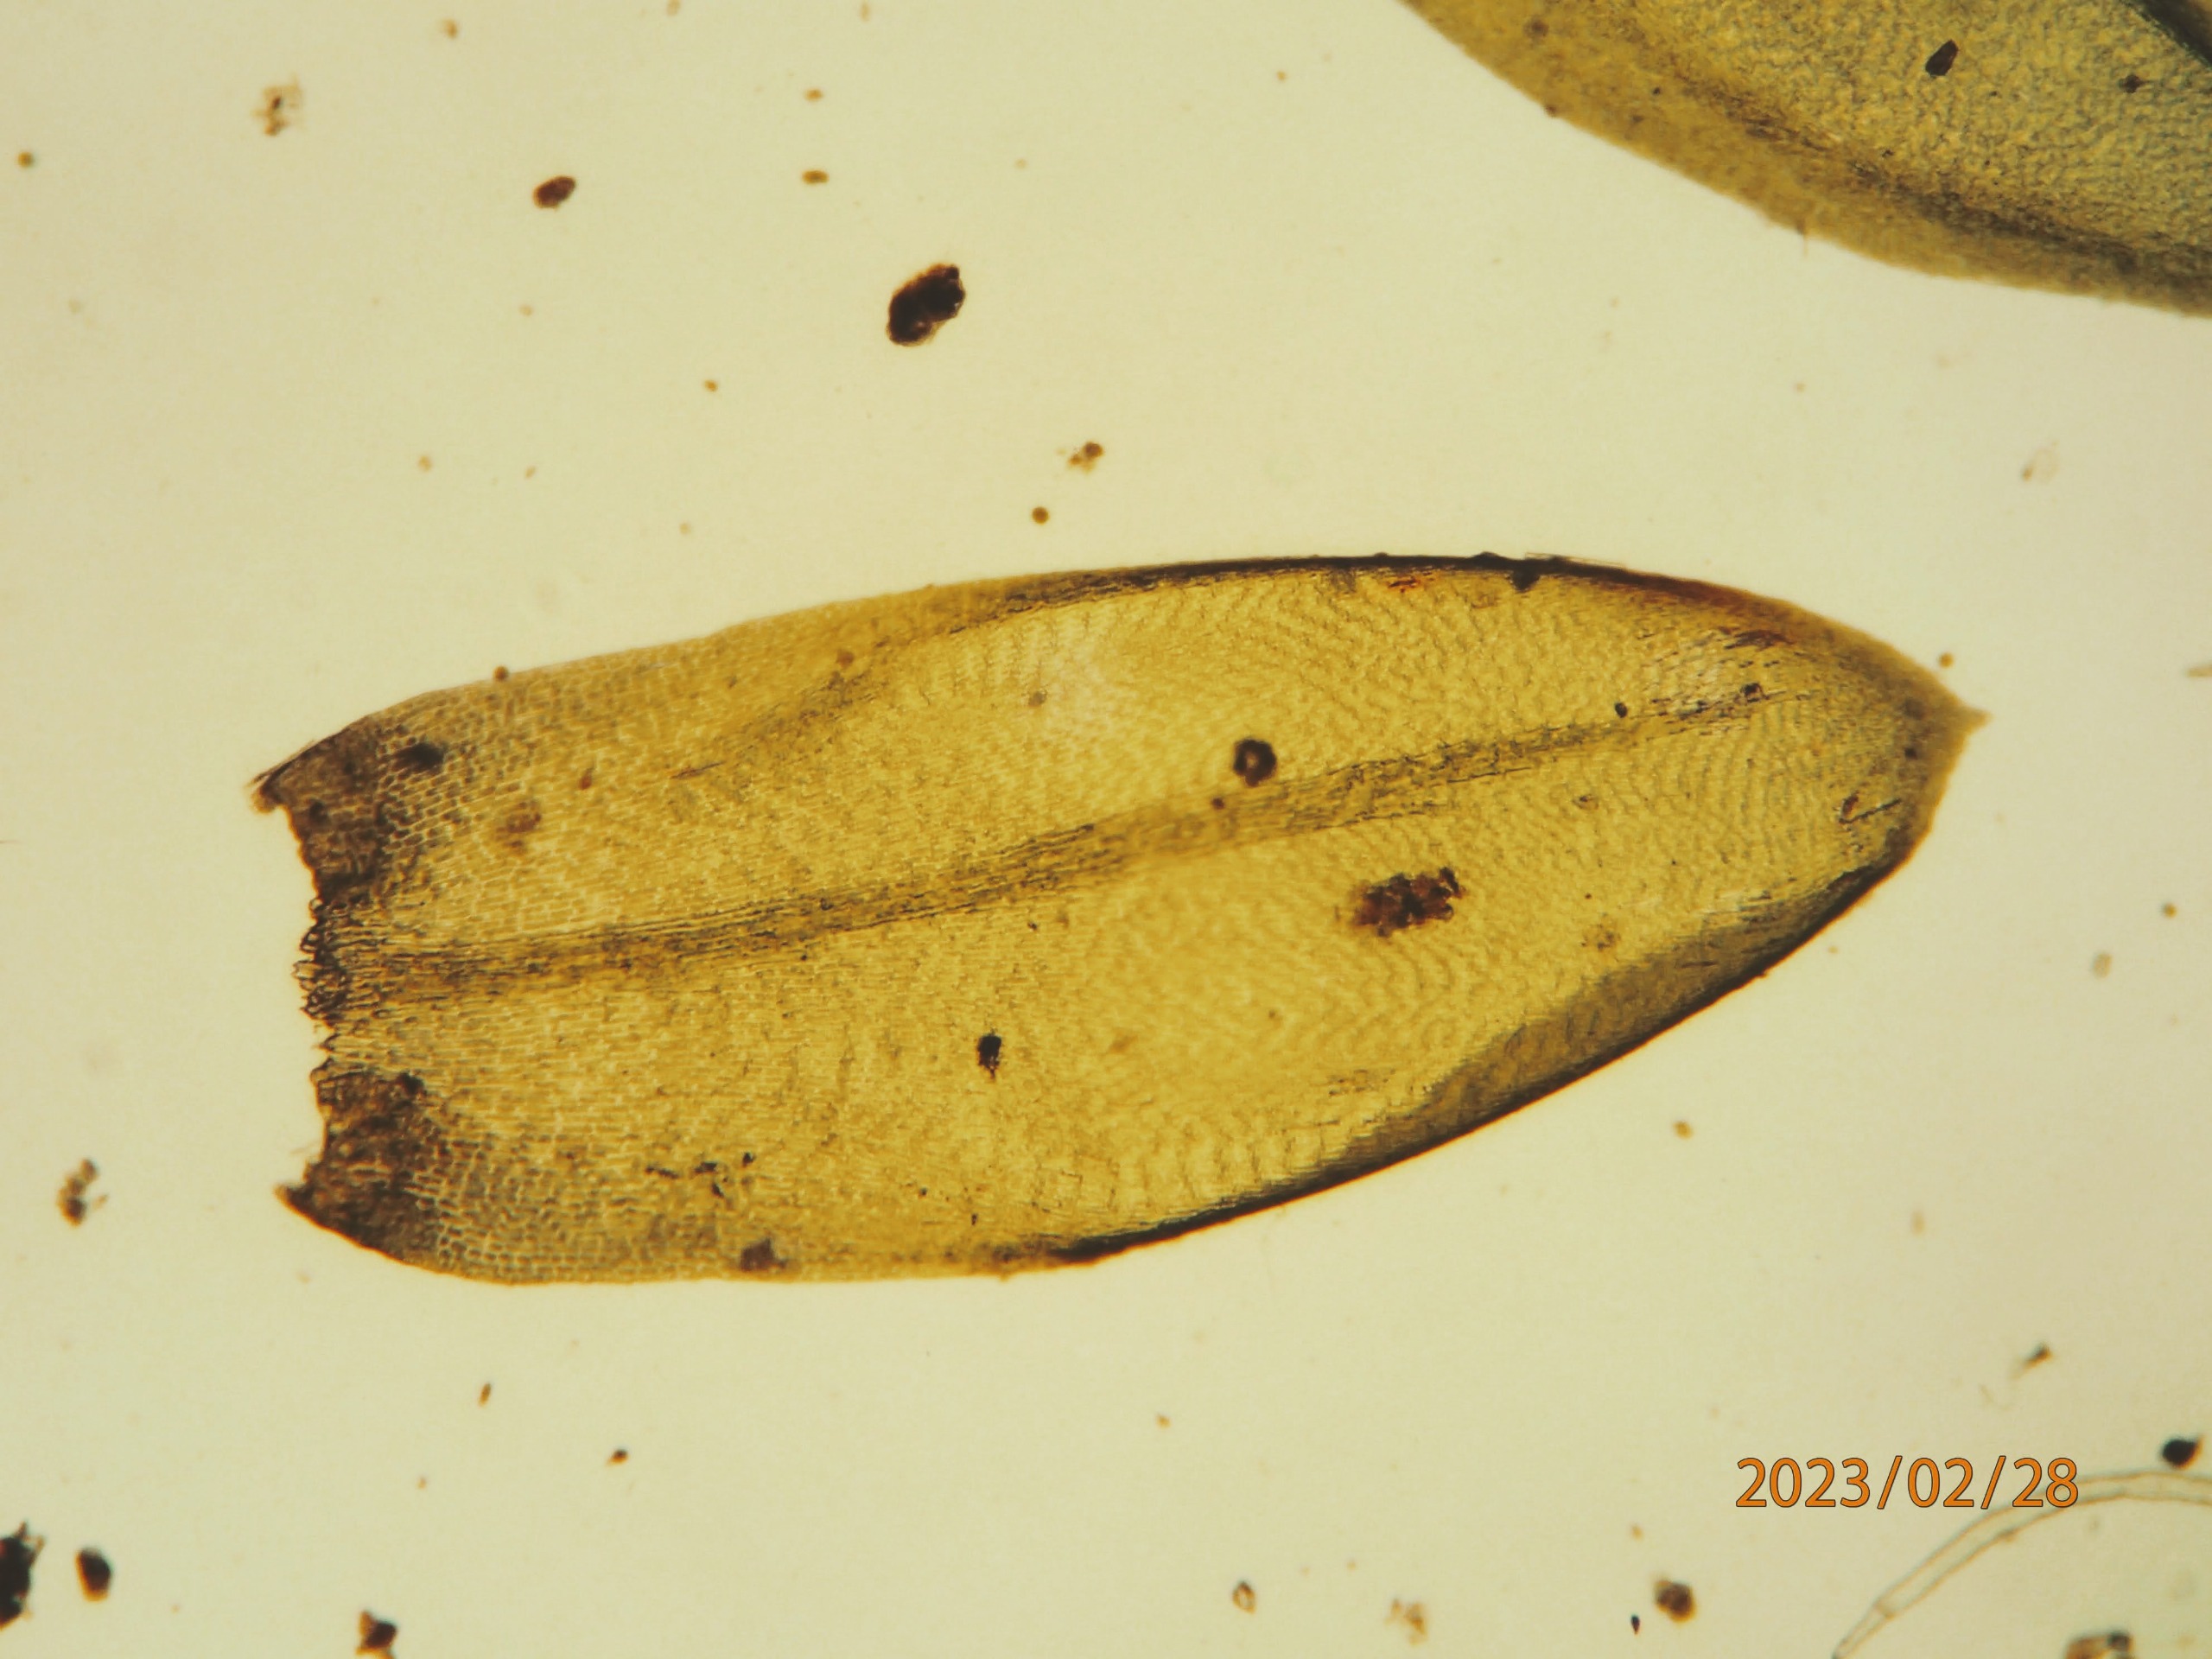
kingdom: Plantae
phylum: Bryophyta
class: Bryopsida
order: Hypnales
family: Lembophyllaceae
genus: Isothecium
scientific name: Isothecium alopecuroides
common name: Stor stammemos
